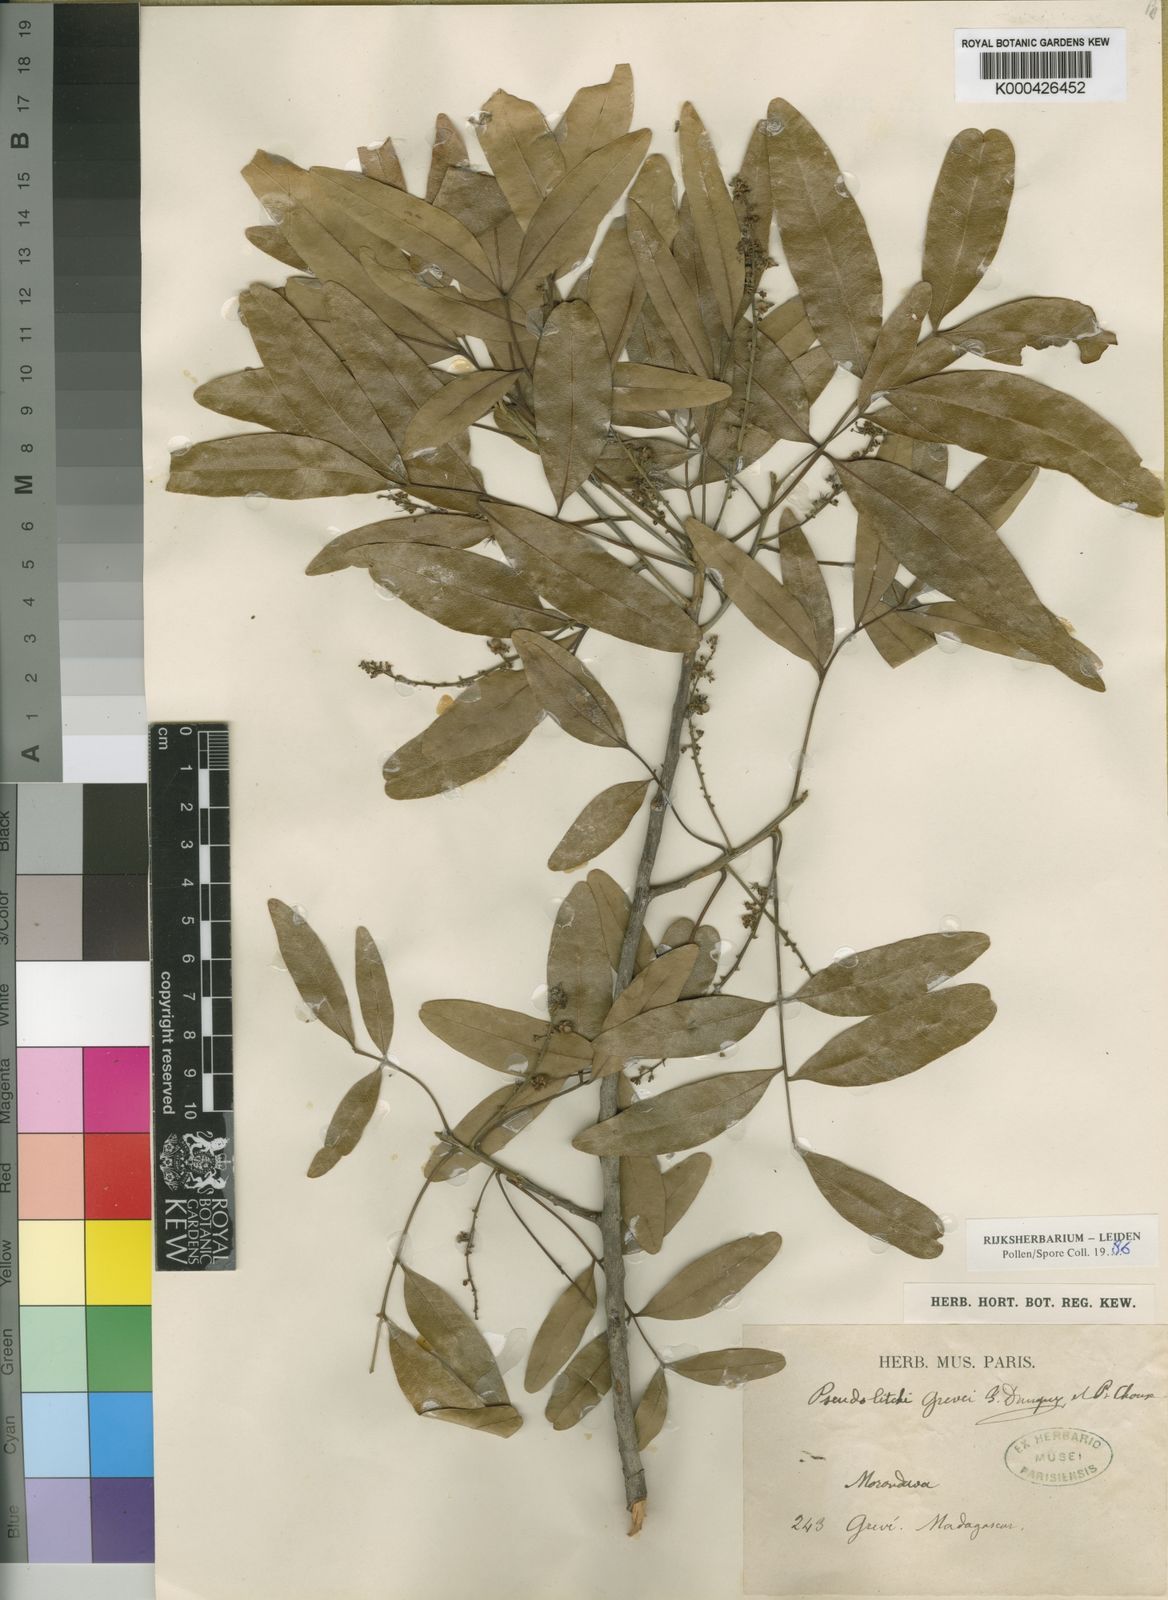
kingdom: Plantae
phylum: Tracheophyta
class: Magnoliopsida
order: Sapindales
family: Sapindaceae
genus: Stadmannia
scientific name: Stadmannia oppositifolia
